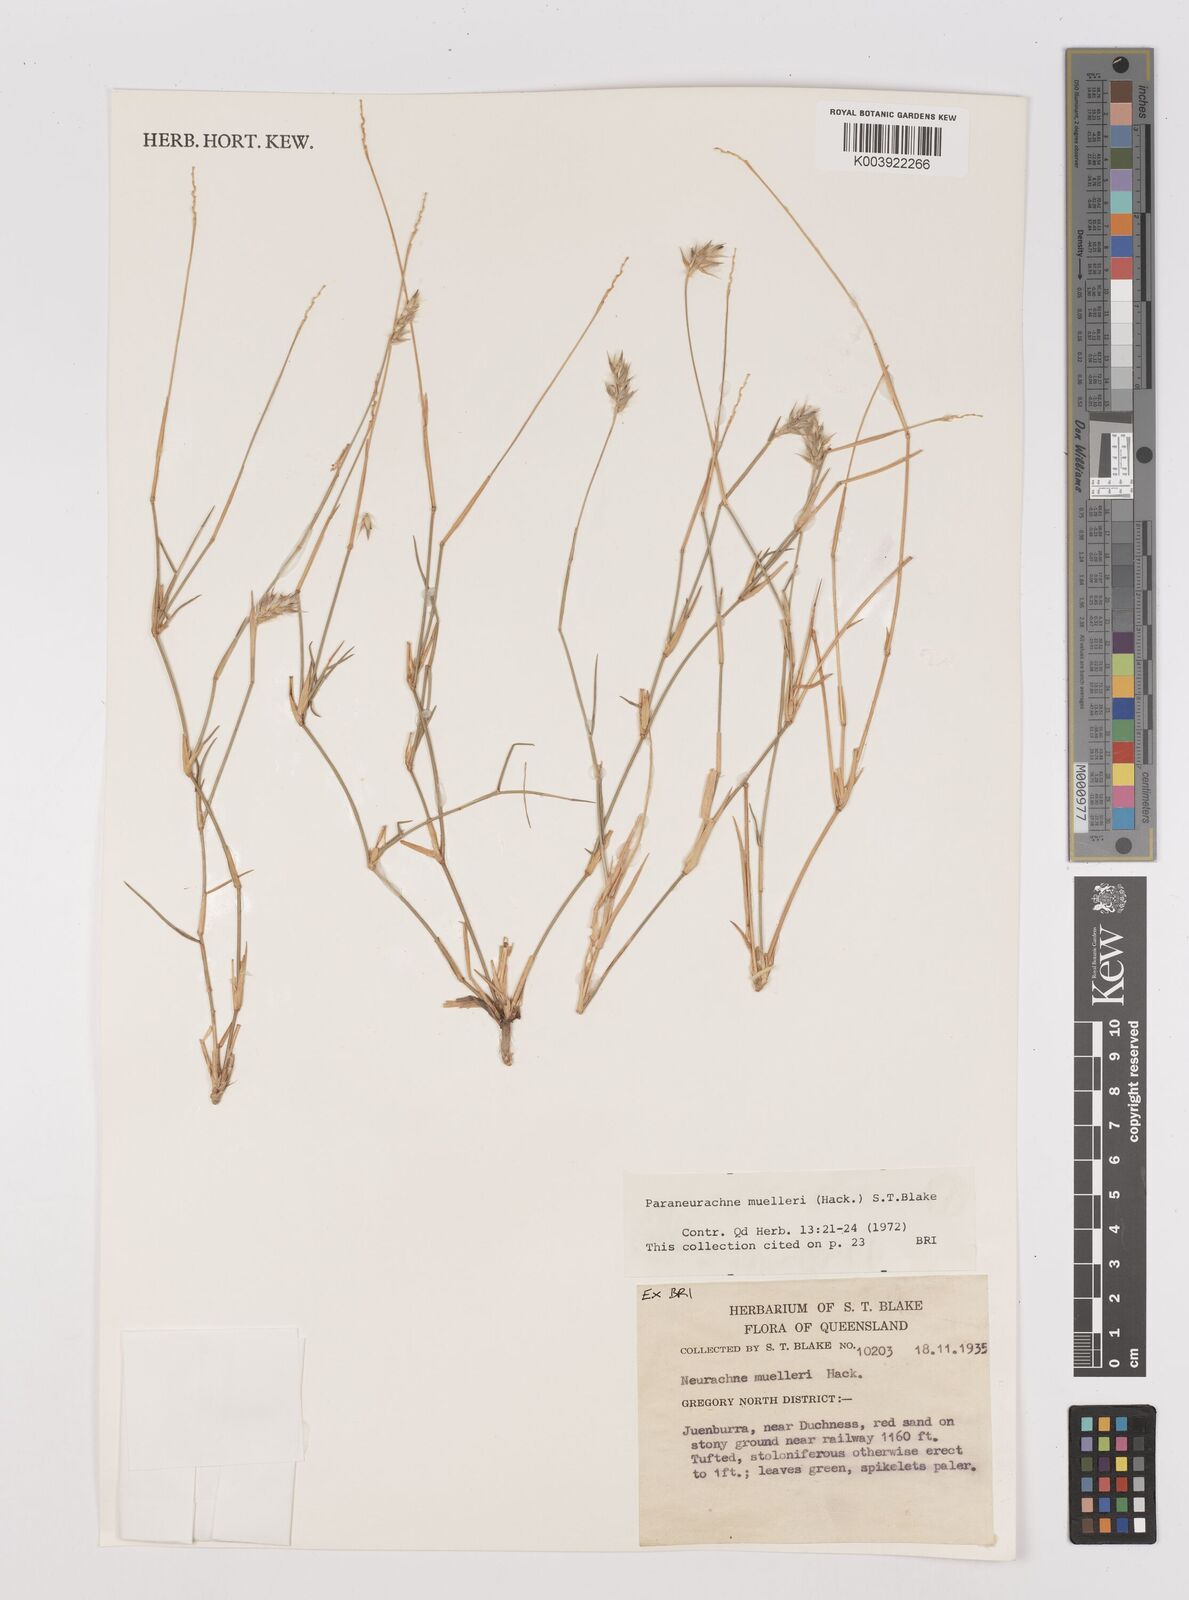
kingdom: Plantae
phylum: Tracheophyta
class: Liliopsida
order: Poales
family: Poaceae
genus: Neurachne
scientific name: Neurachne muelleri
